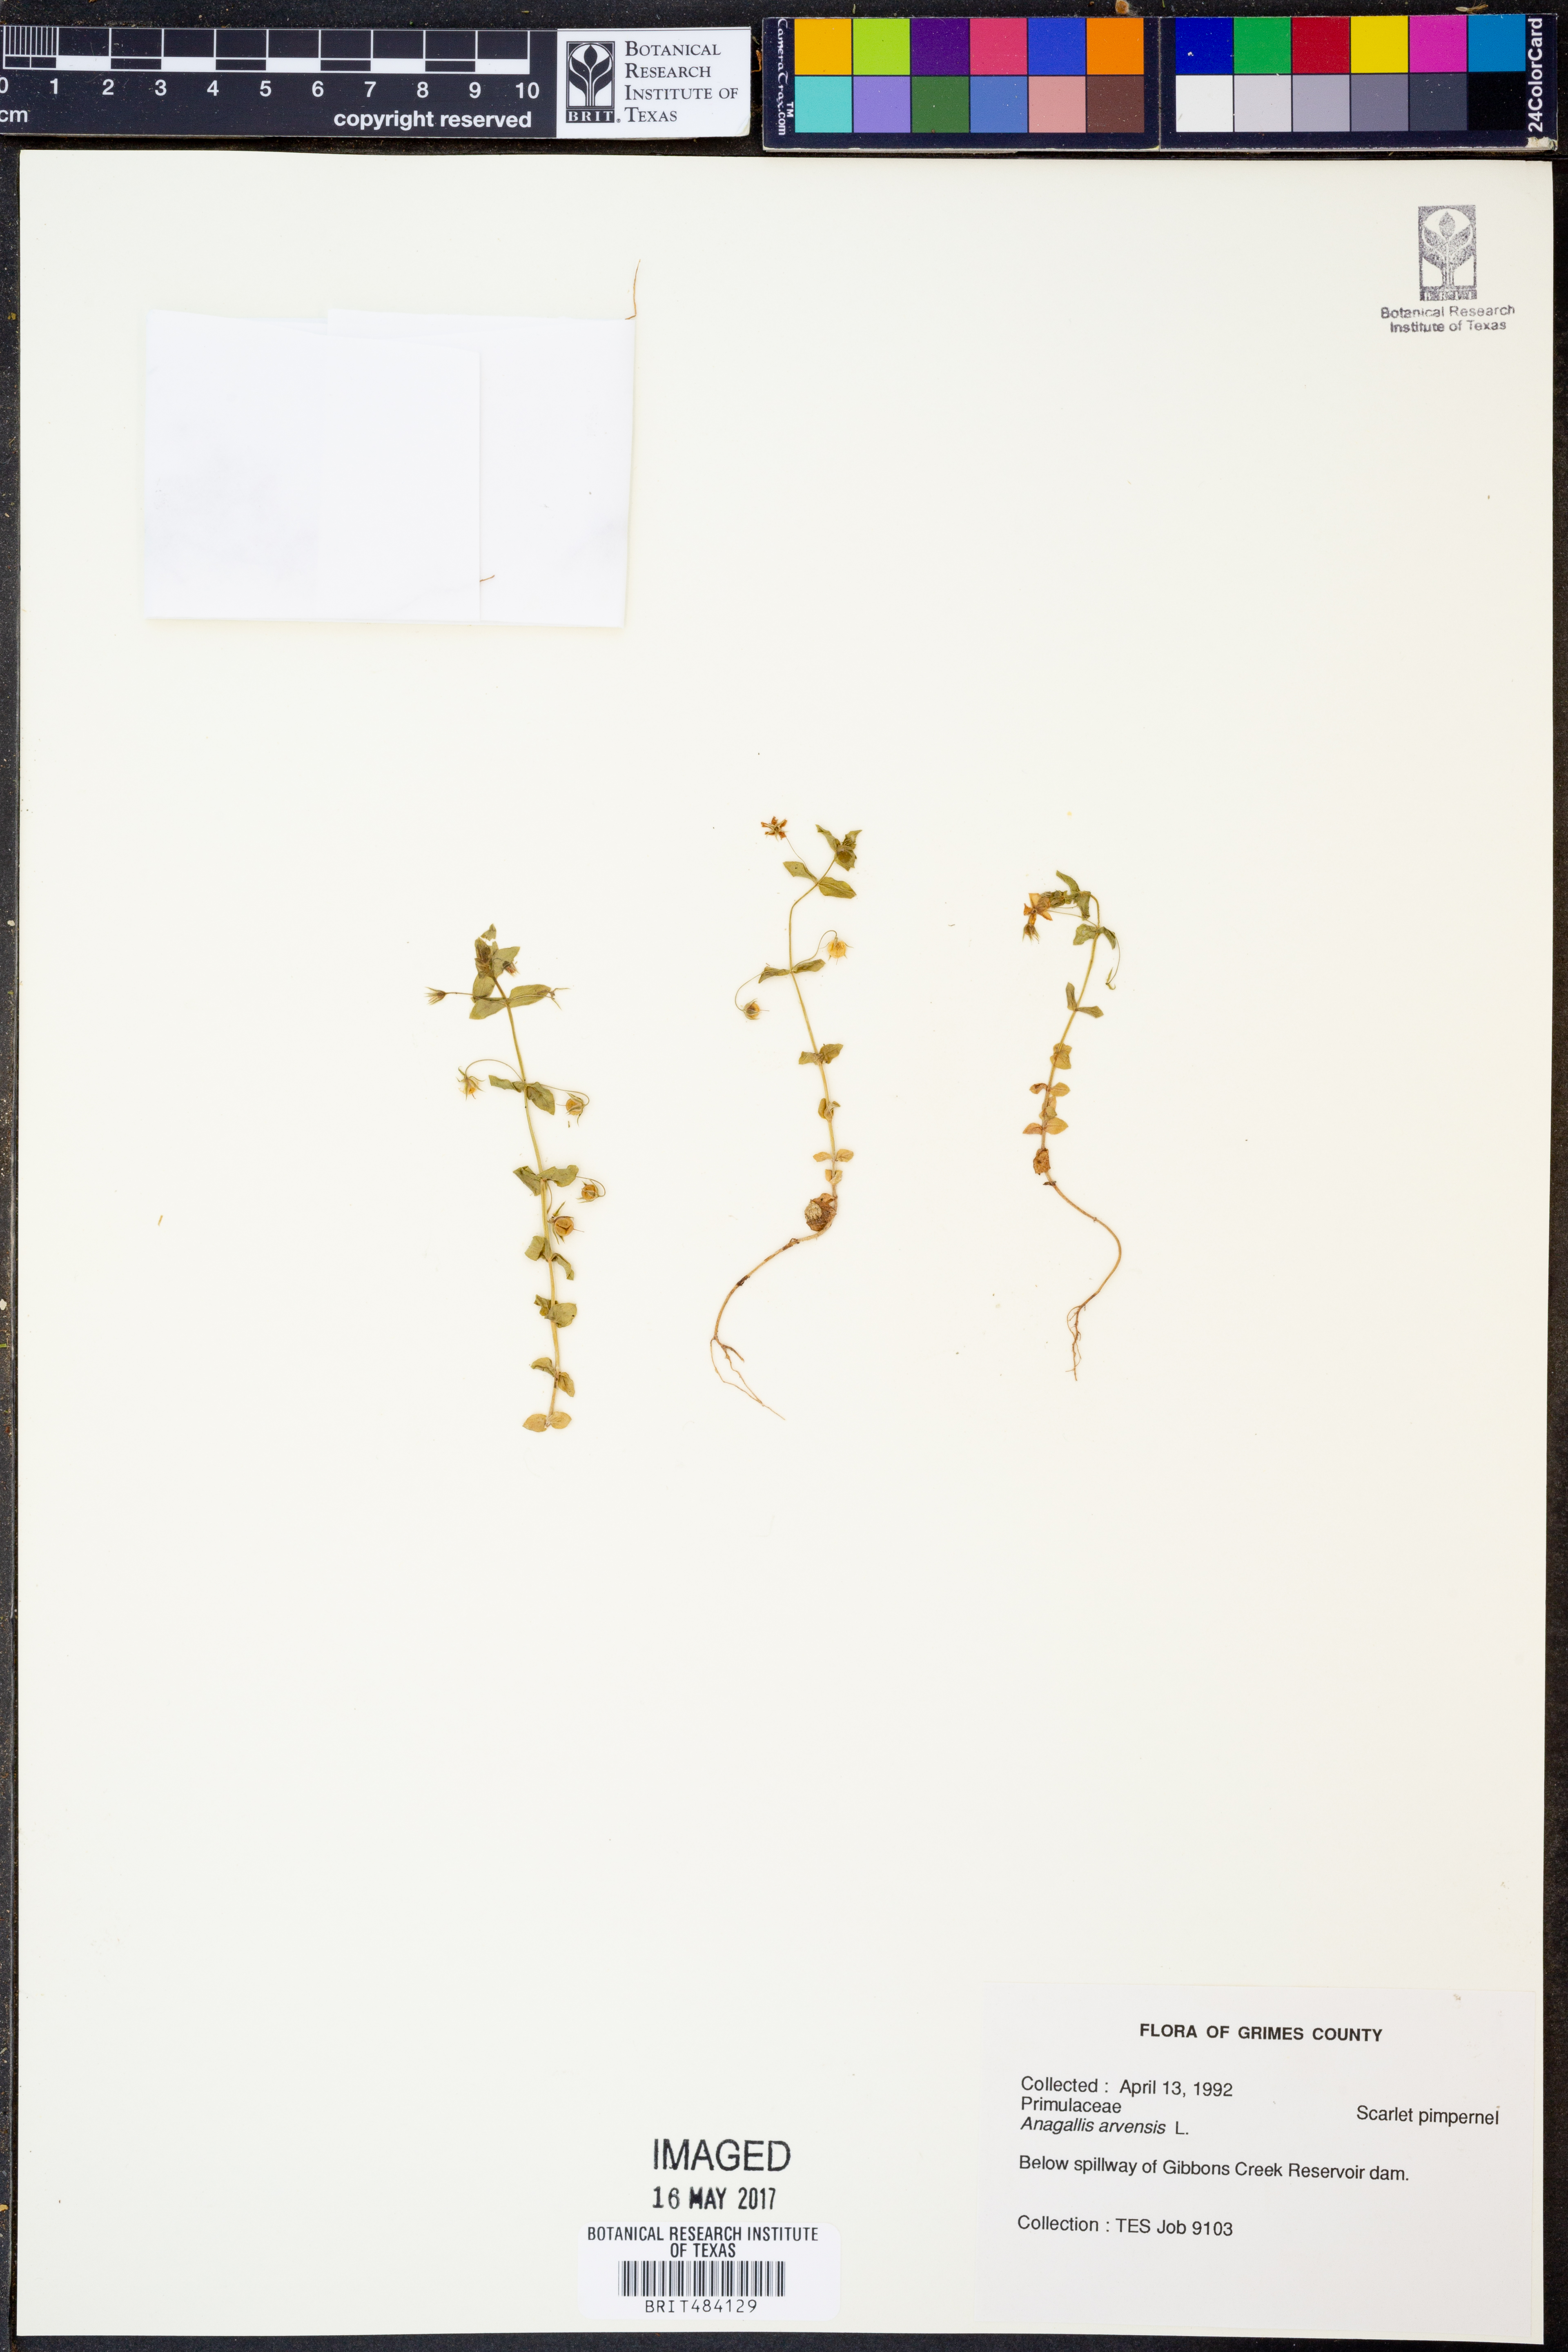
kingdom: Plantae
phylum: Tracheophyta
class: Magnoliopsida
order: Ericales
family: Primulaceae
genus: Lysimachia
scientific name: Lysimachia arvensis
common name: Scarlet pimpernel
